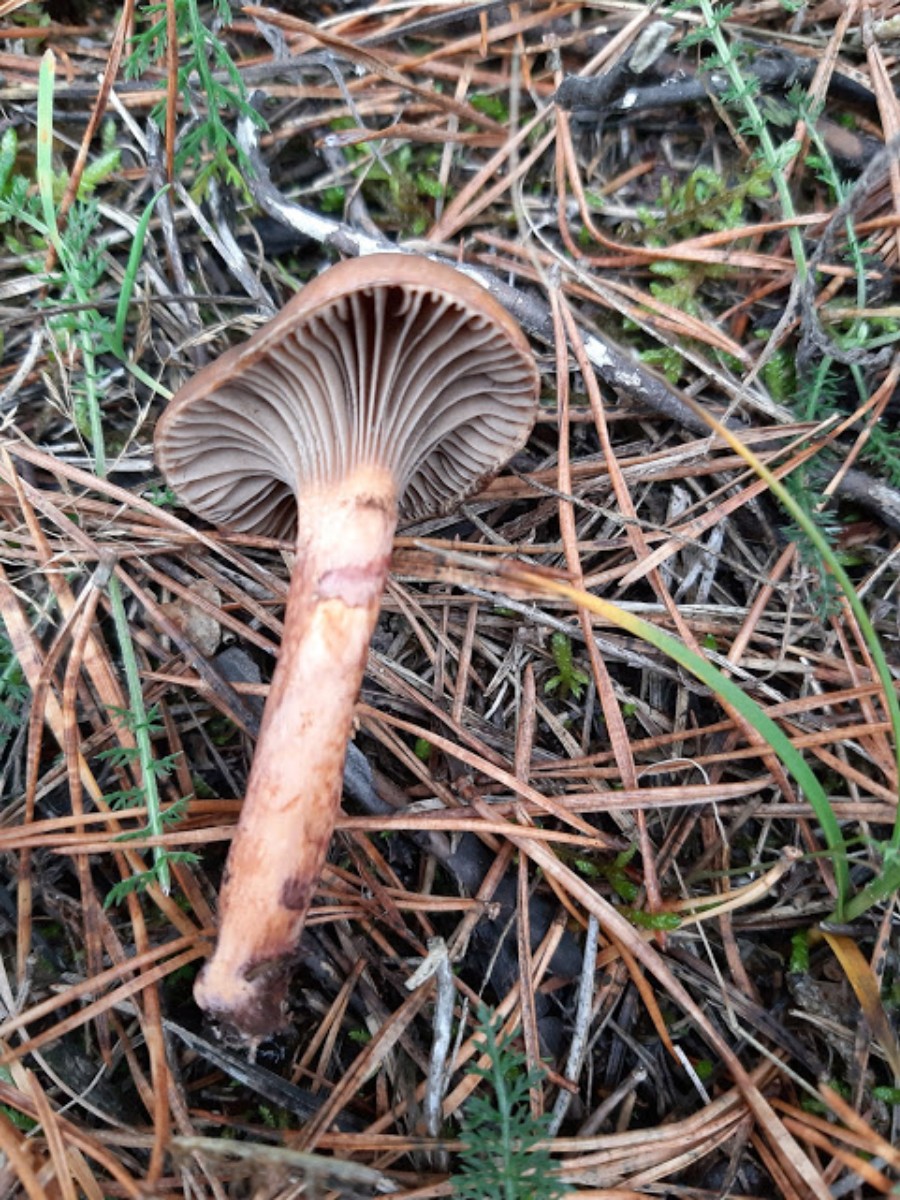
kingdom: Fungi
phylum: Basidiomycota
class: Agaricomycetes
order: Boletales
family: Gomphidiaceae
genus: Chroogomphus
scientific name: Chroogomphus rutilus
